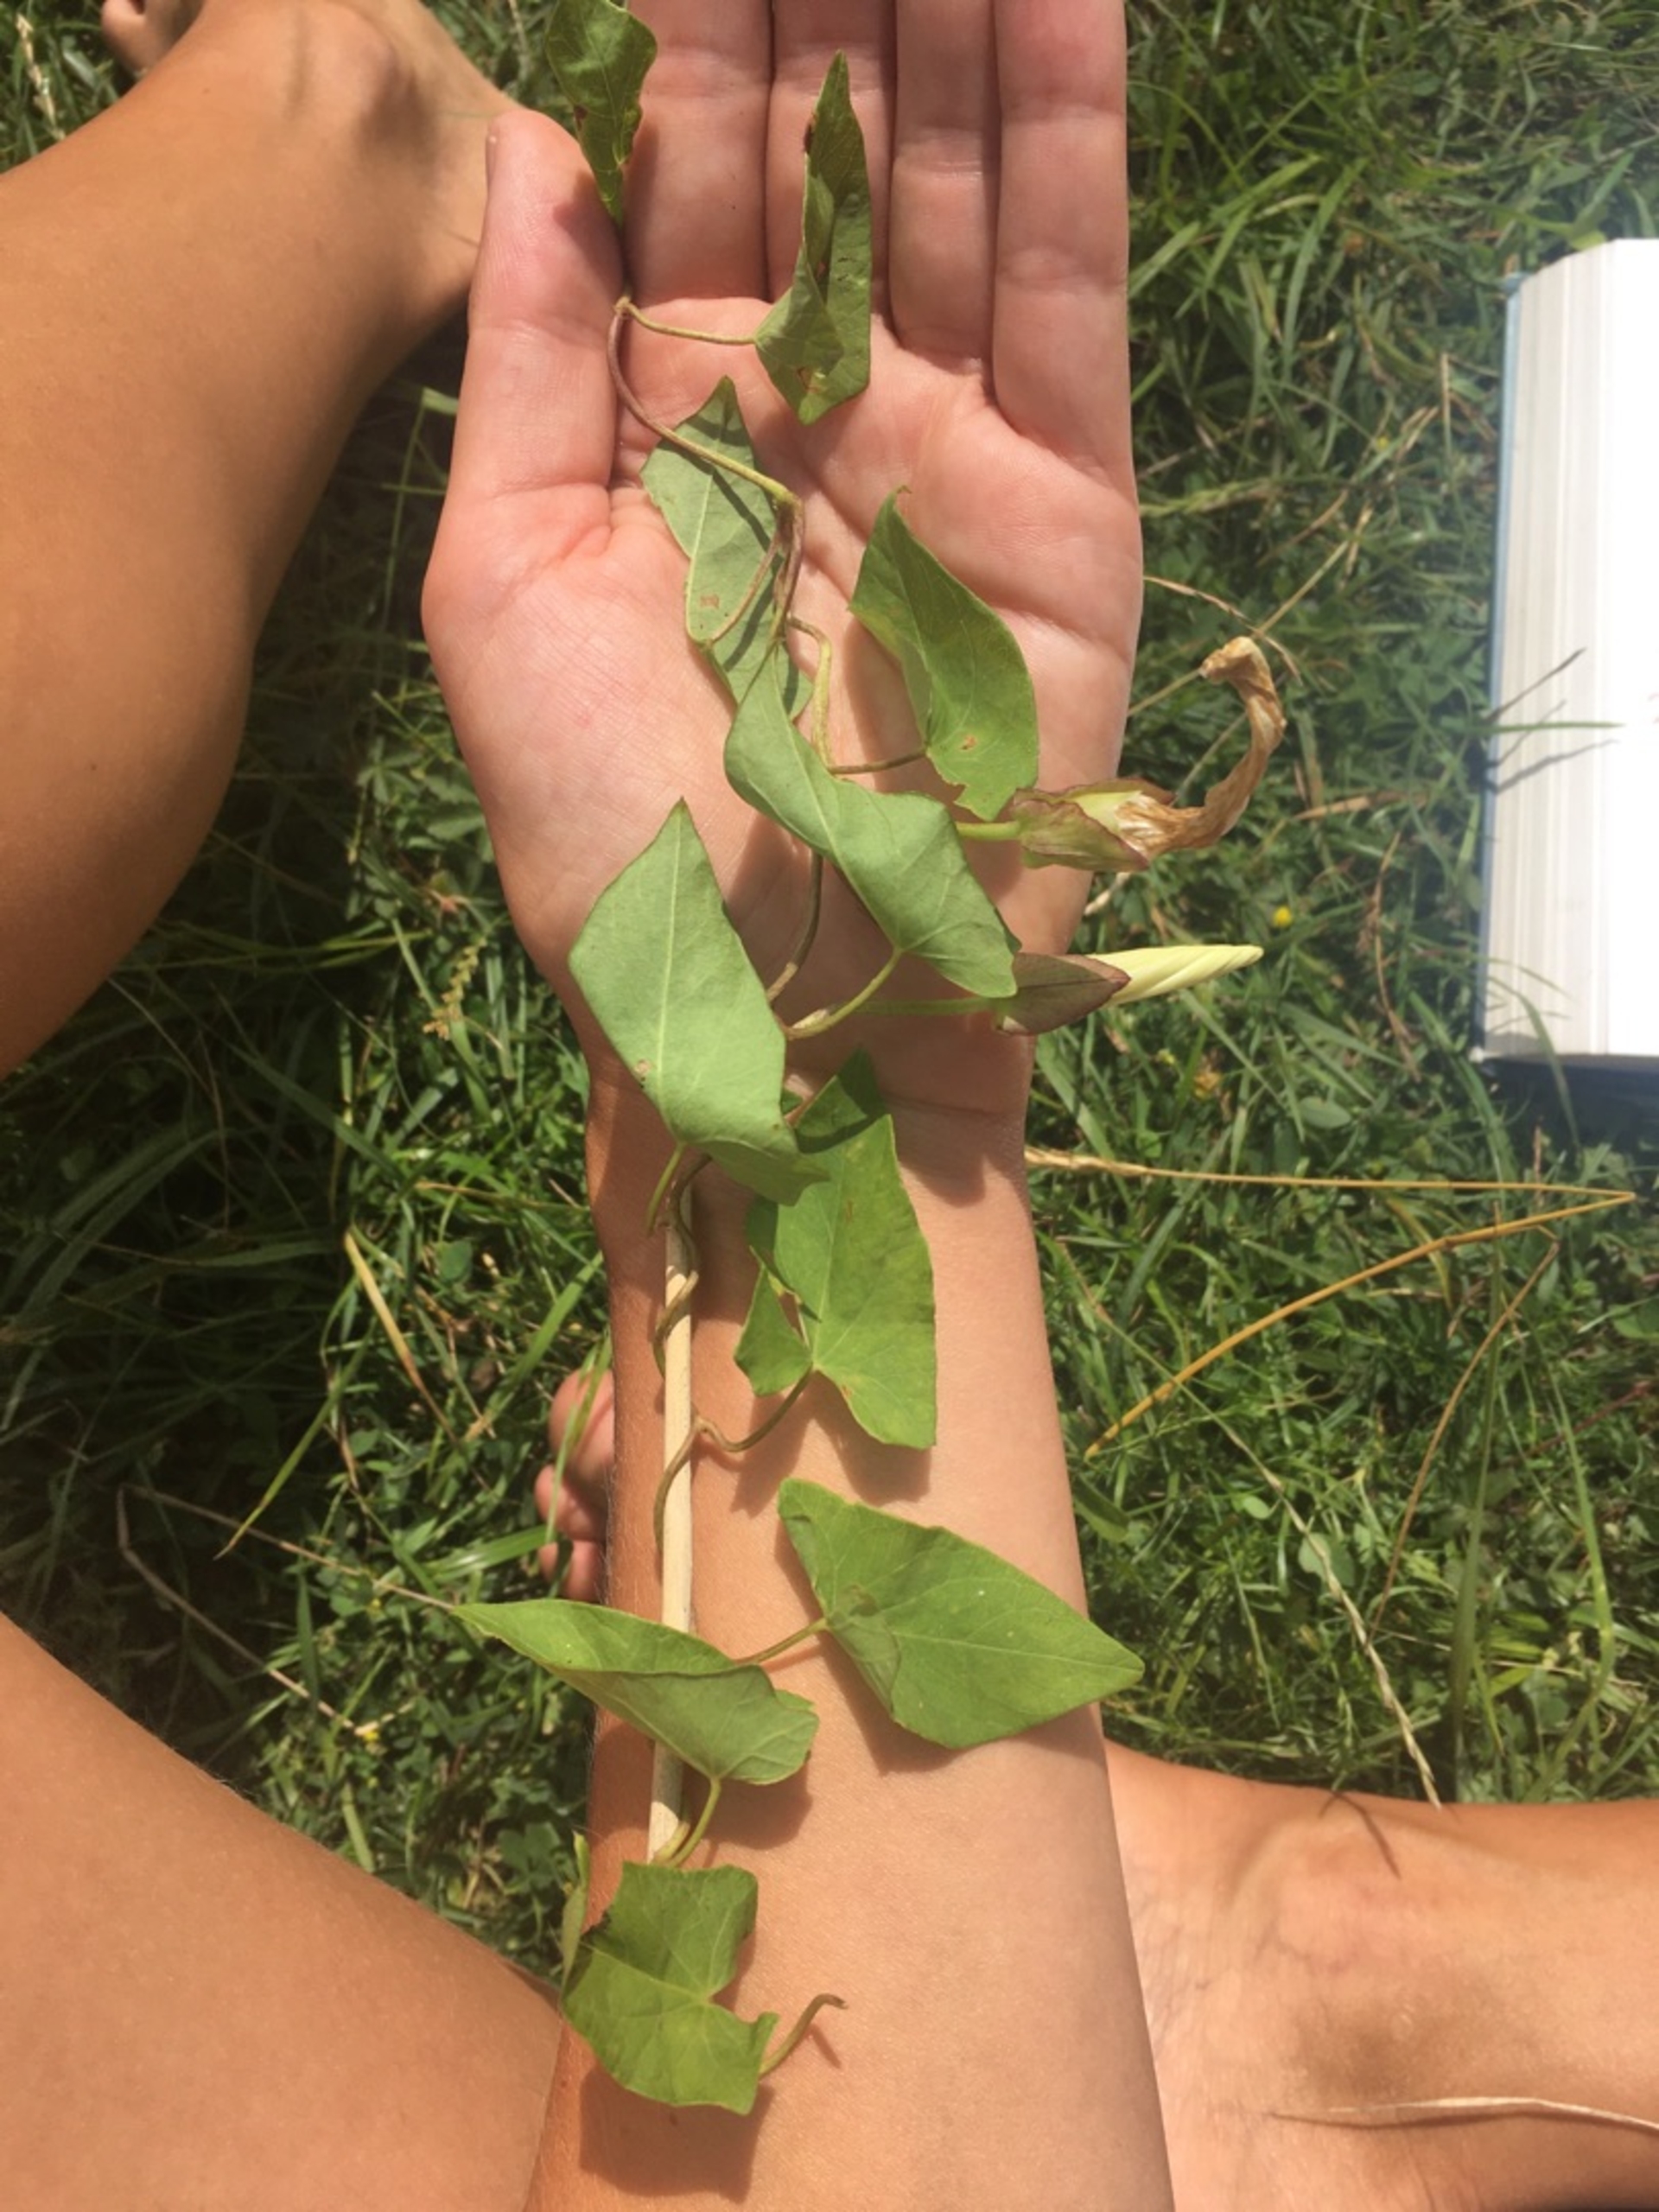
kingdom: Plantae
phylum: Tracheophyta
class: Magnoliopsida
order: Solanales
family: Convolvulaceae
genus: Calystegia
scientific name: Calystegia sepium
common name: Gærde-snerle
